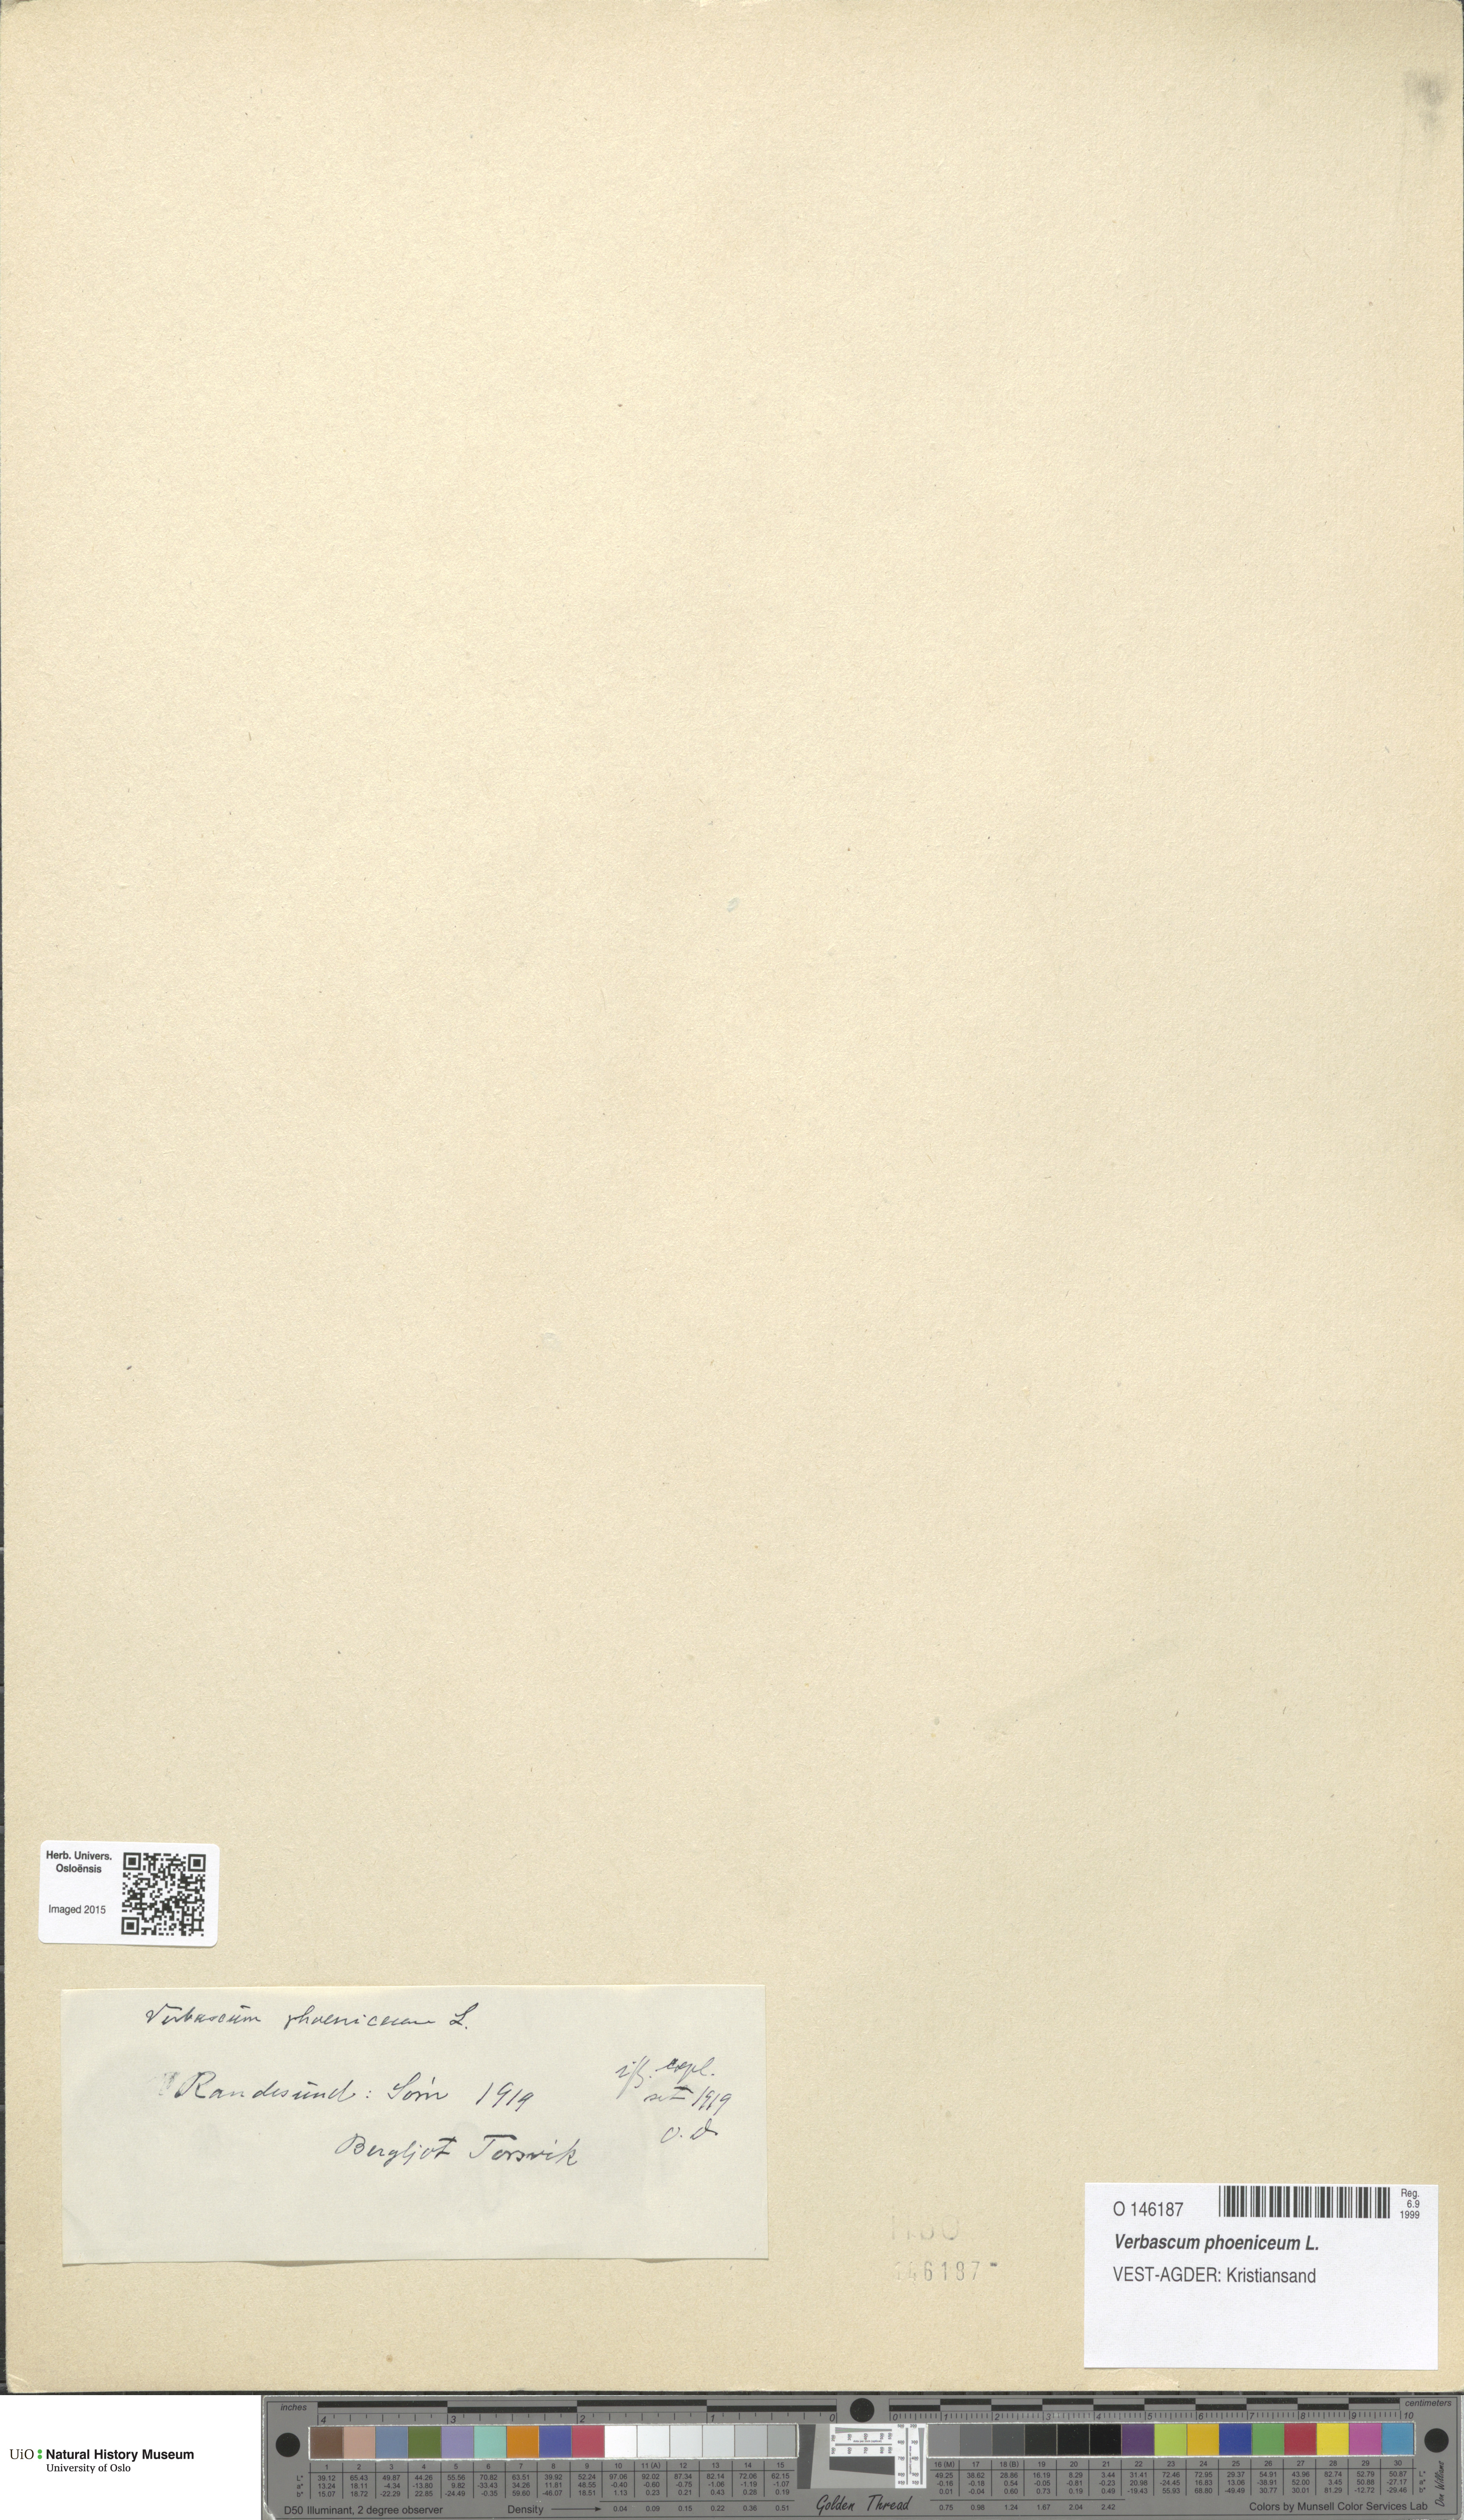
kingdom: Plantae
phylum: Tracheophyta
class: Magnoliopsida
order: Lamiales
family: Scrophulariaceae
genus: Verbascum
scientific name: Verbascum phoeniceum
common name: Purple mullein
